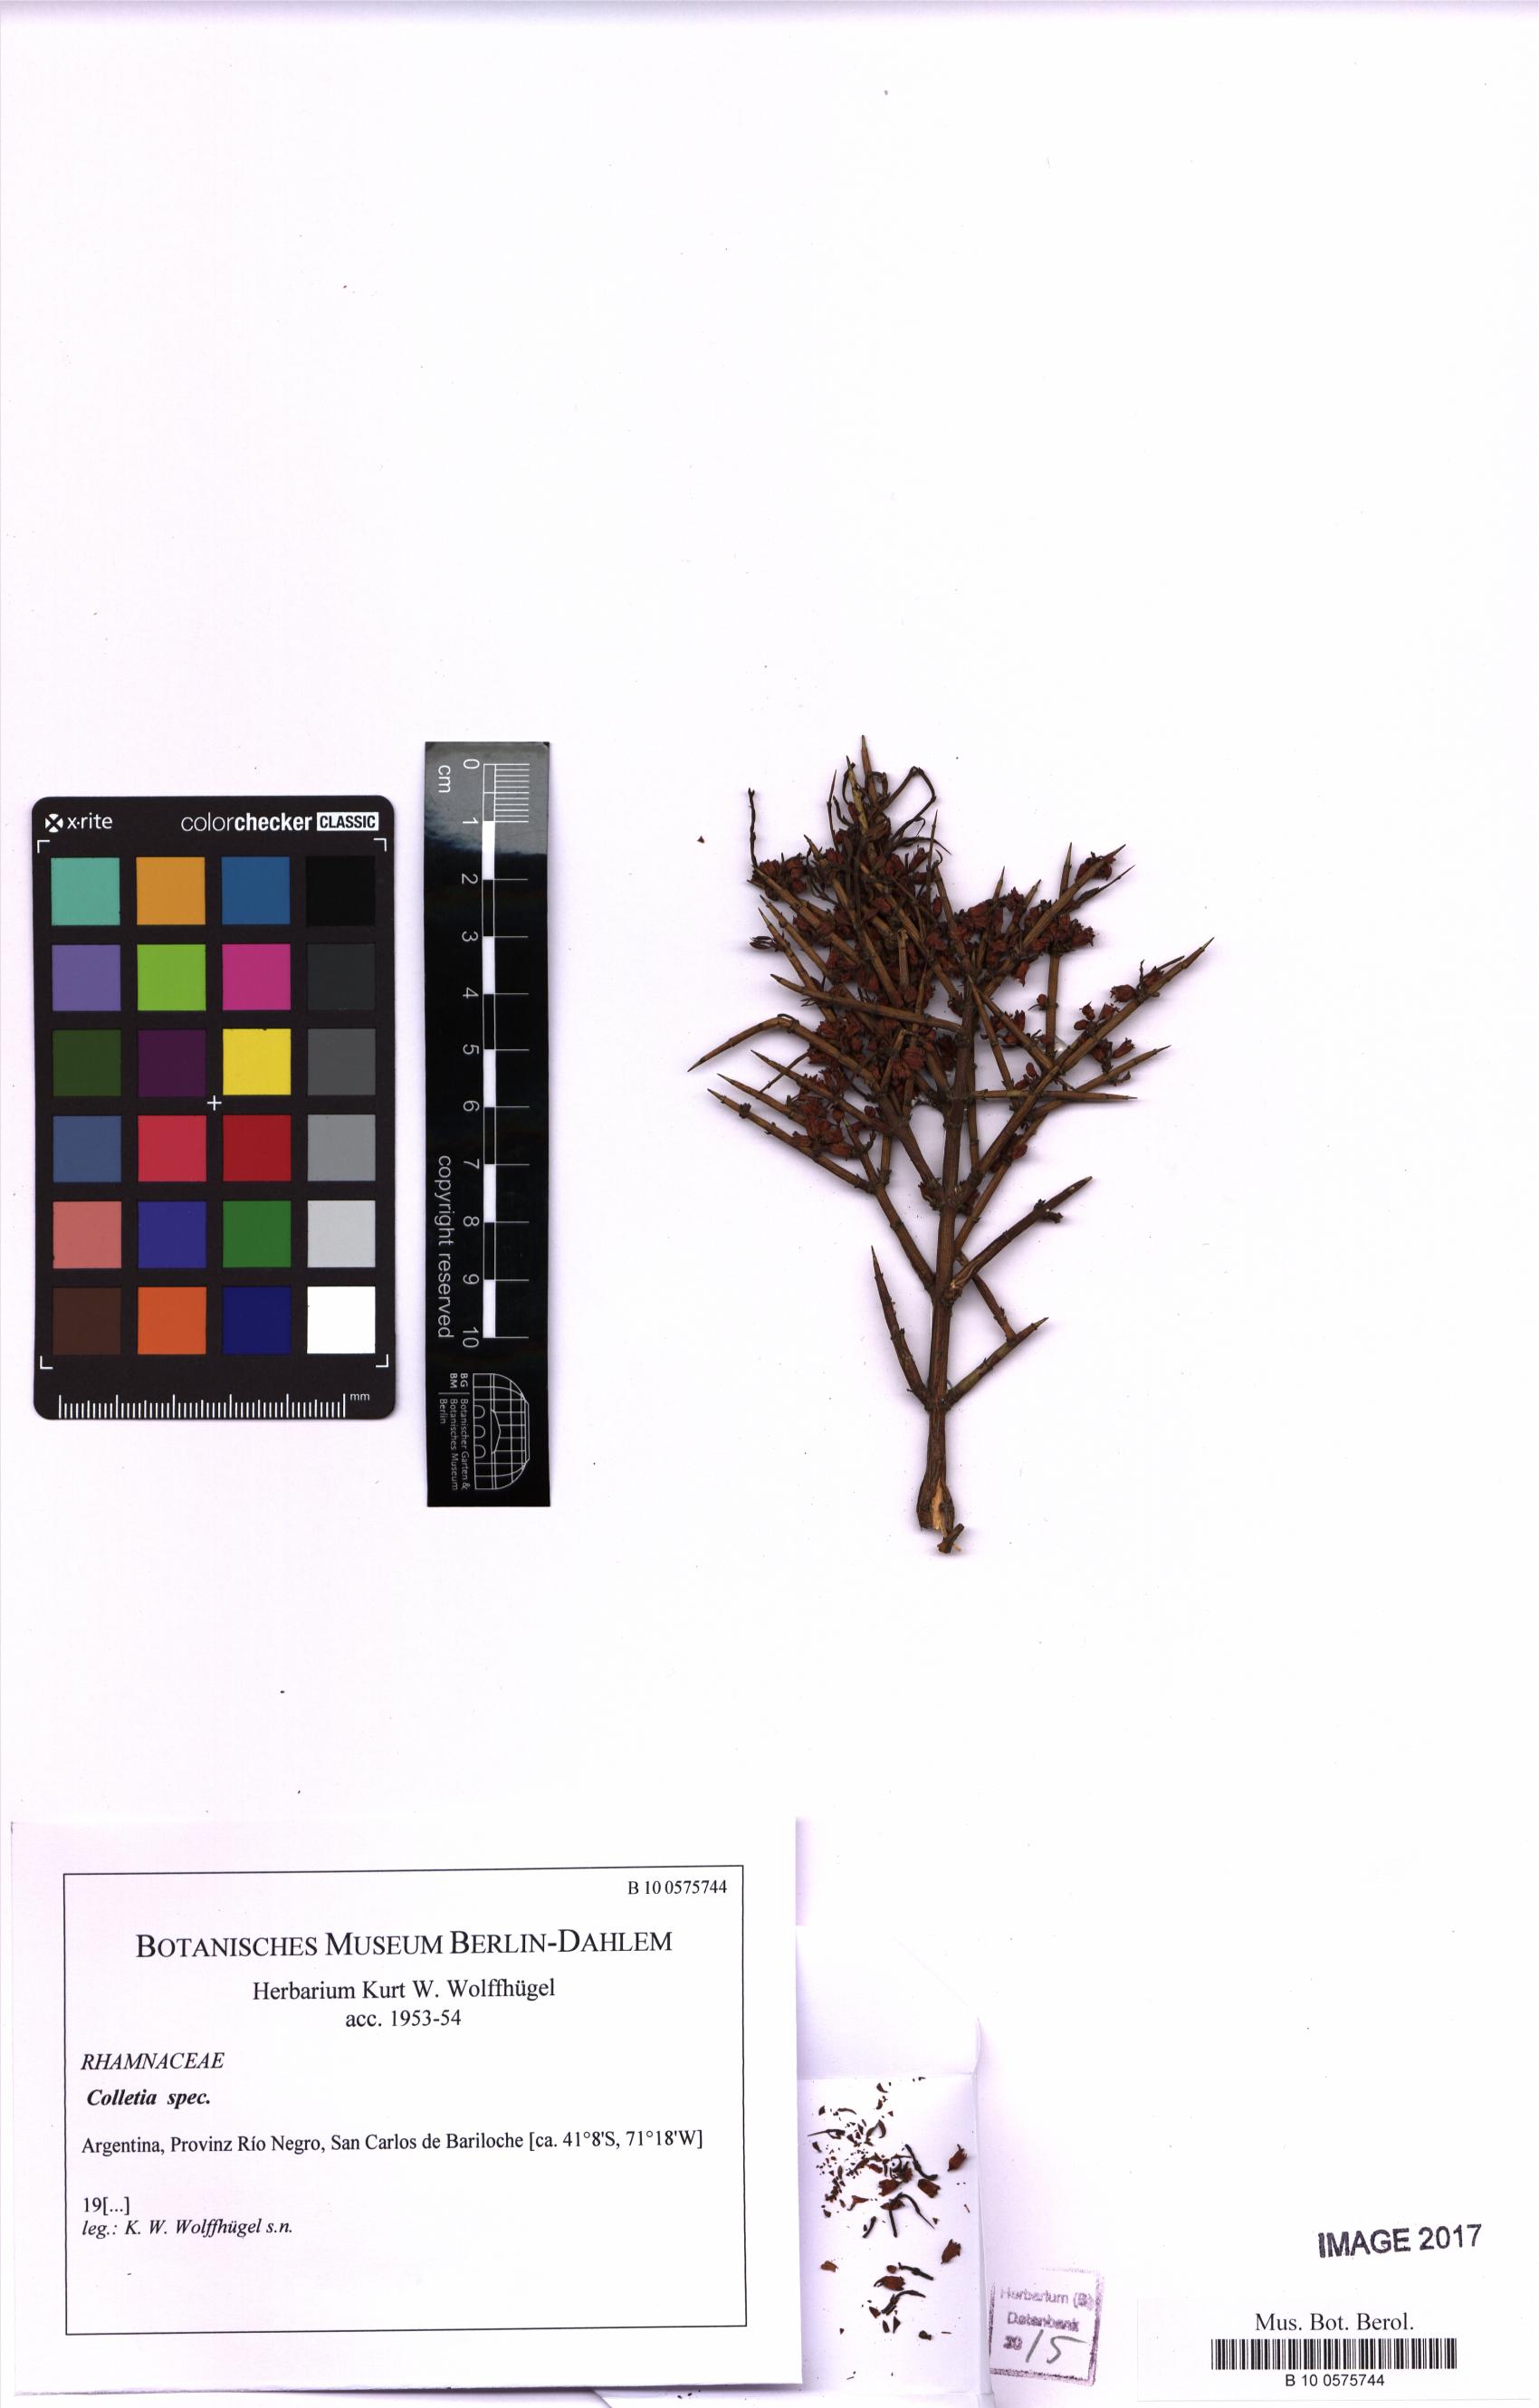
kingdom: Plantae
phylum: Tracheophyta
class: Magnoliopsida
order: Rosales
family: Rhamnaceae
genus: Colletia
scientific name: Colletia
